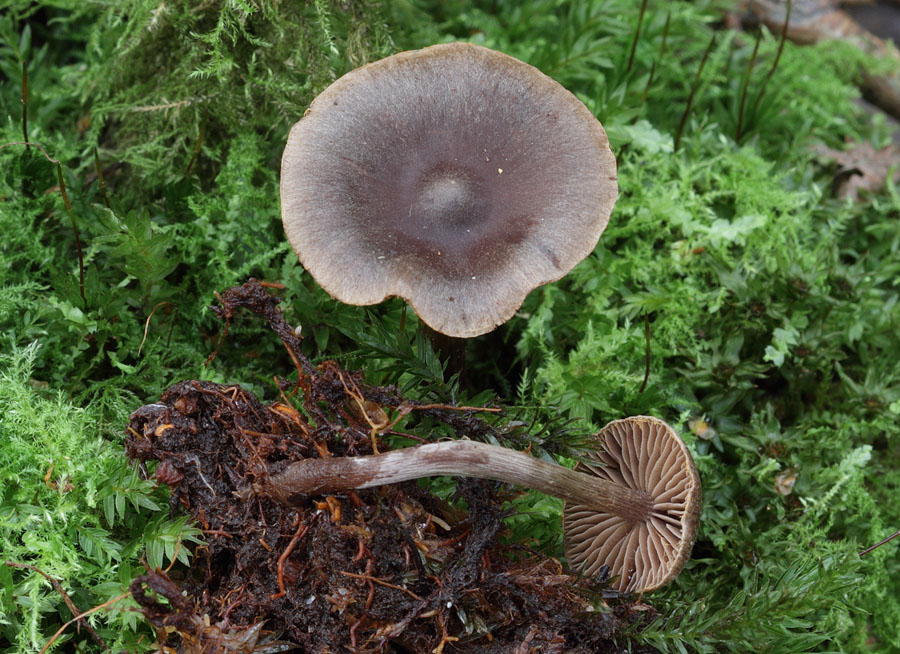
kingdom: Fungi
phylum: Basidiomycota
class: Agaricomycetes
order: Agaricales
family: Cortinariaceae
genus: Cortinarius
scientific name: Cortinarius umbrinolens
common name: mørk slørhat
